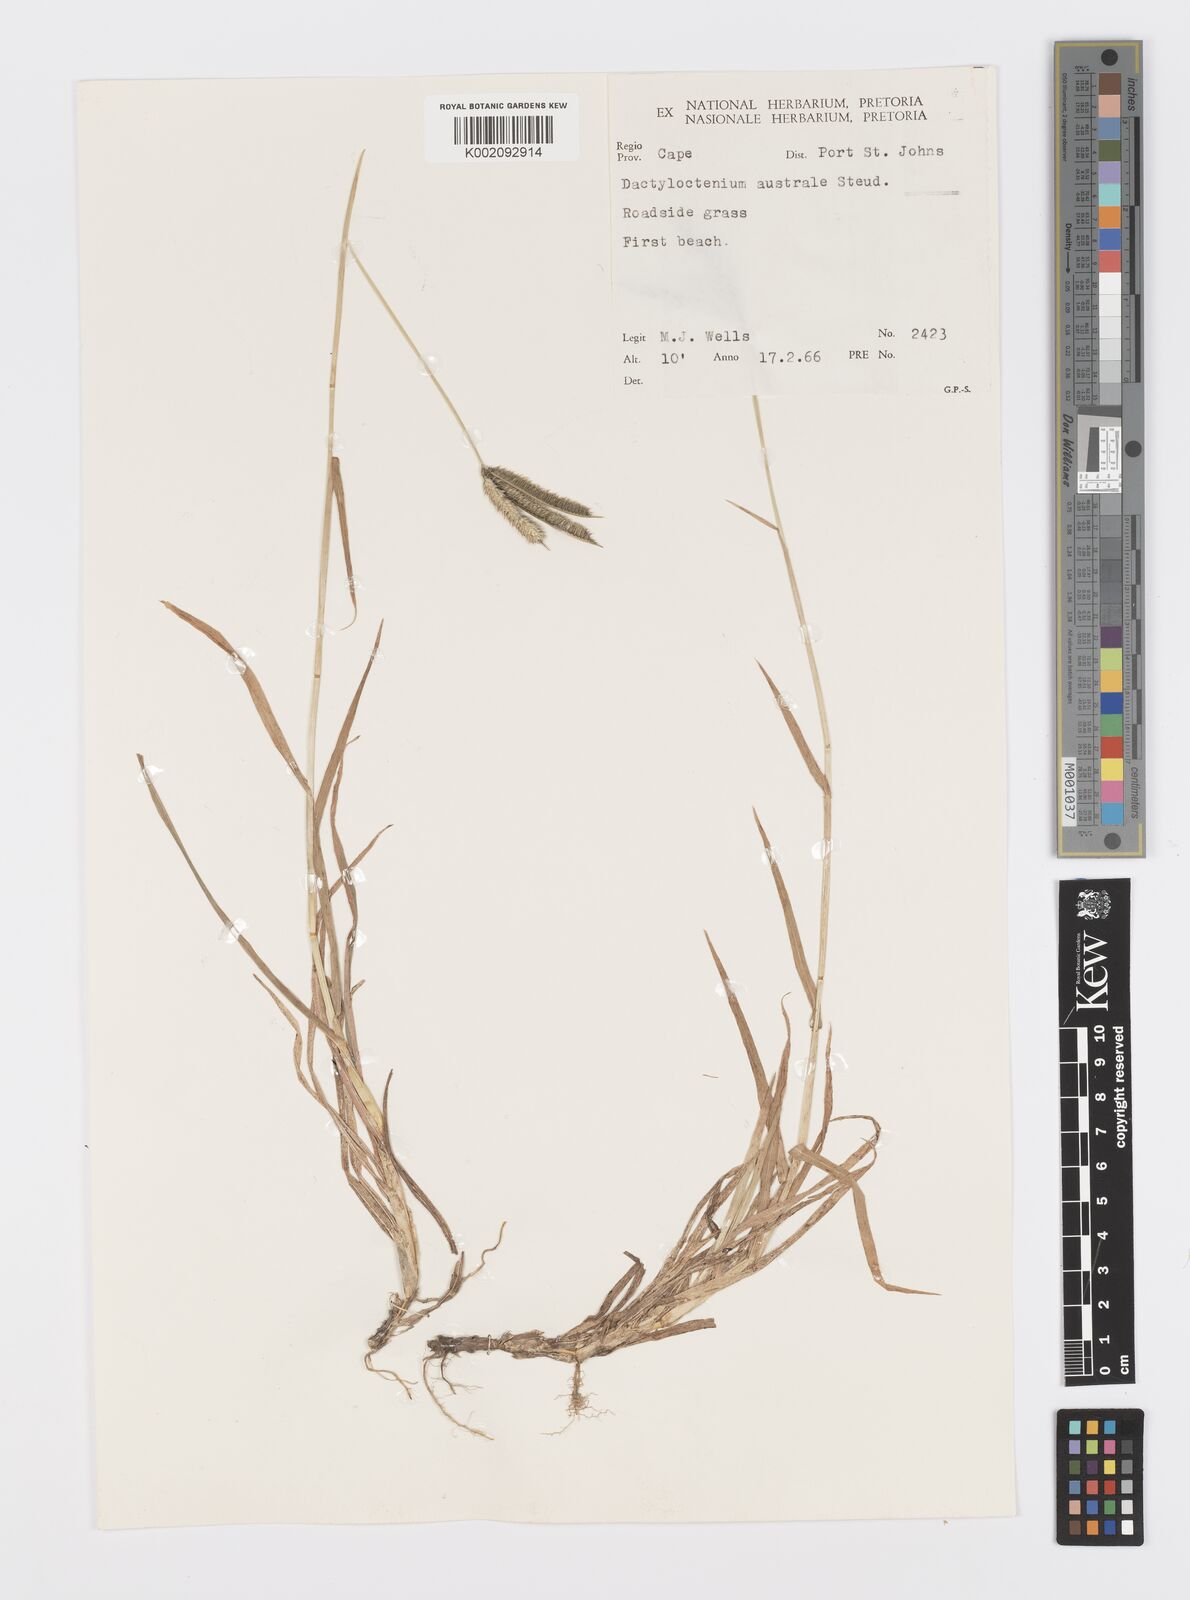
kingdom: Plantae
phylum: Tracheophyta
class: Liliopsida
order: Poales
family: Poaceae
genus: Dactyloctenium
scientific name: Dactyloctenium australe
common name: Durban grass
